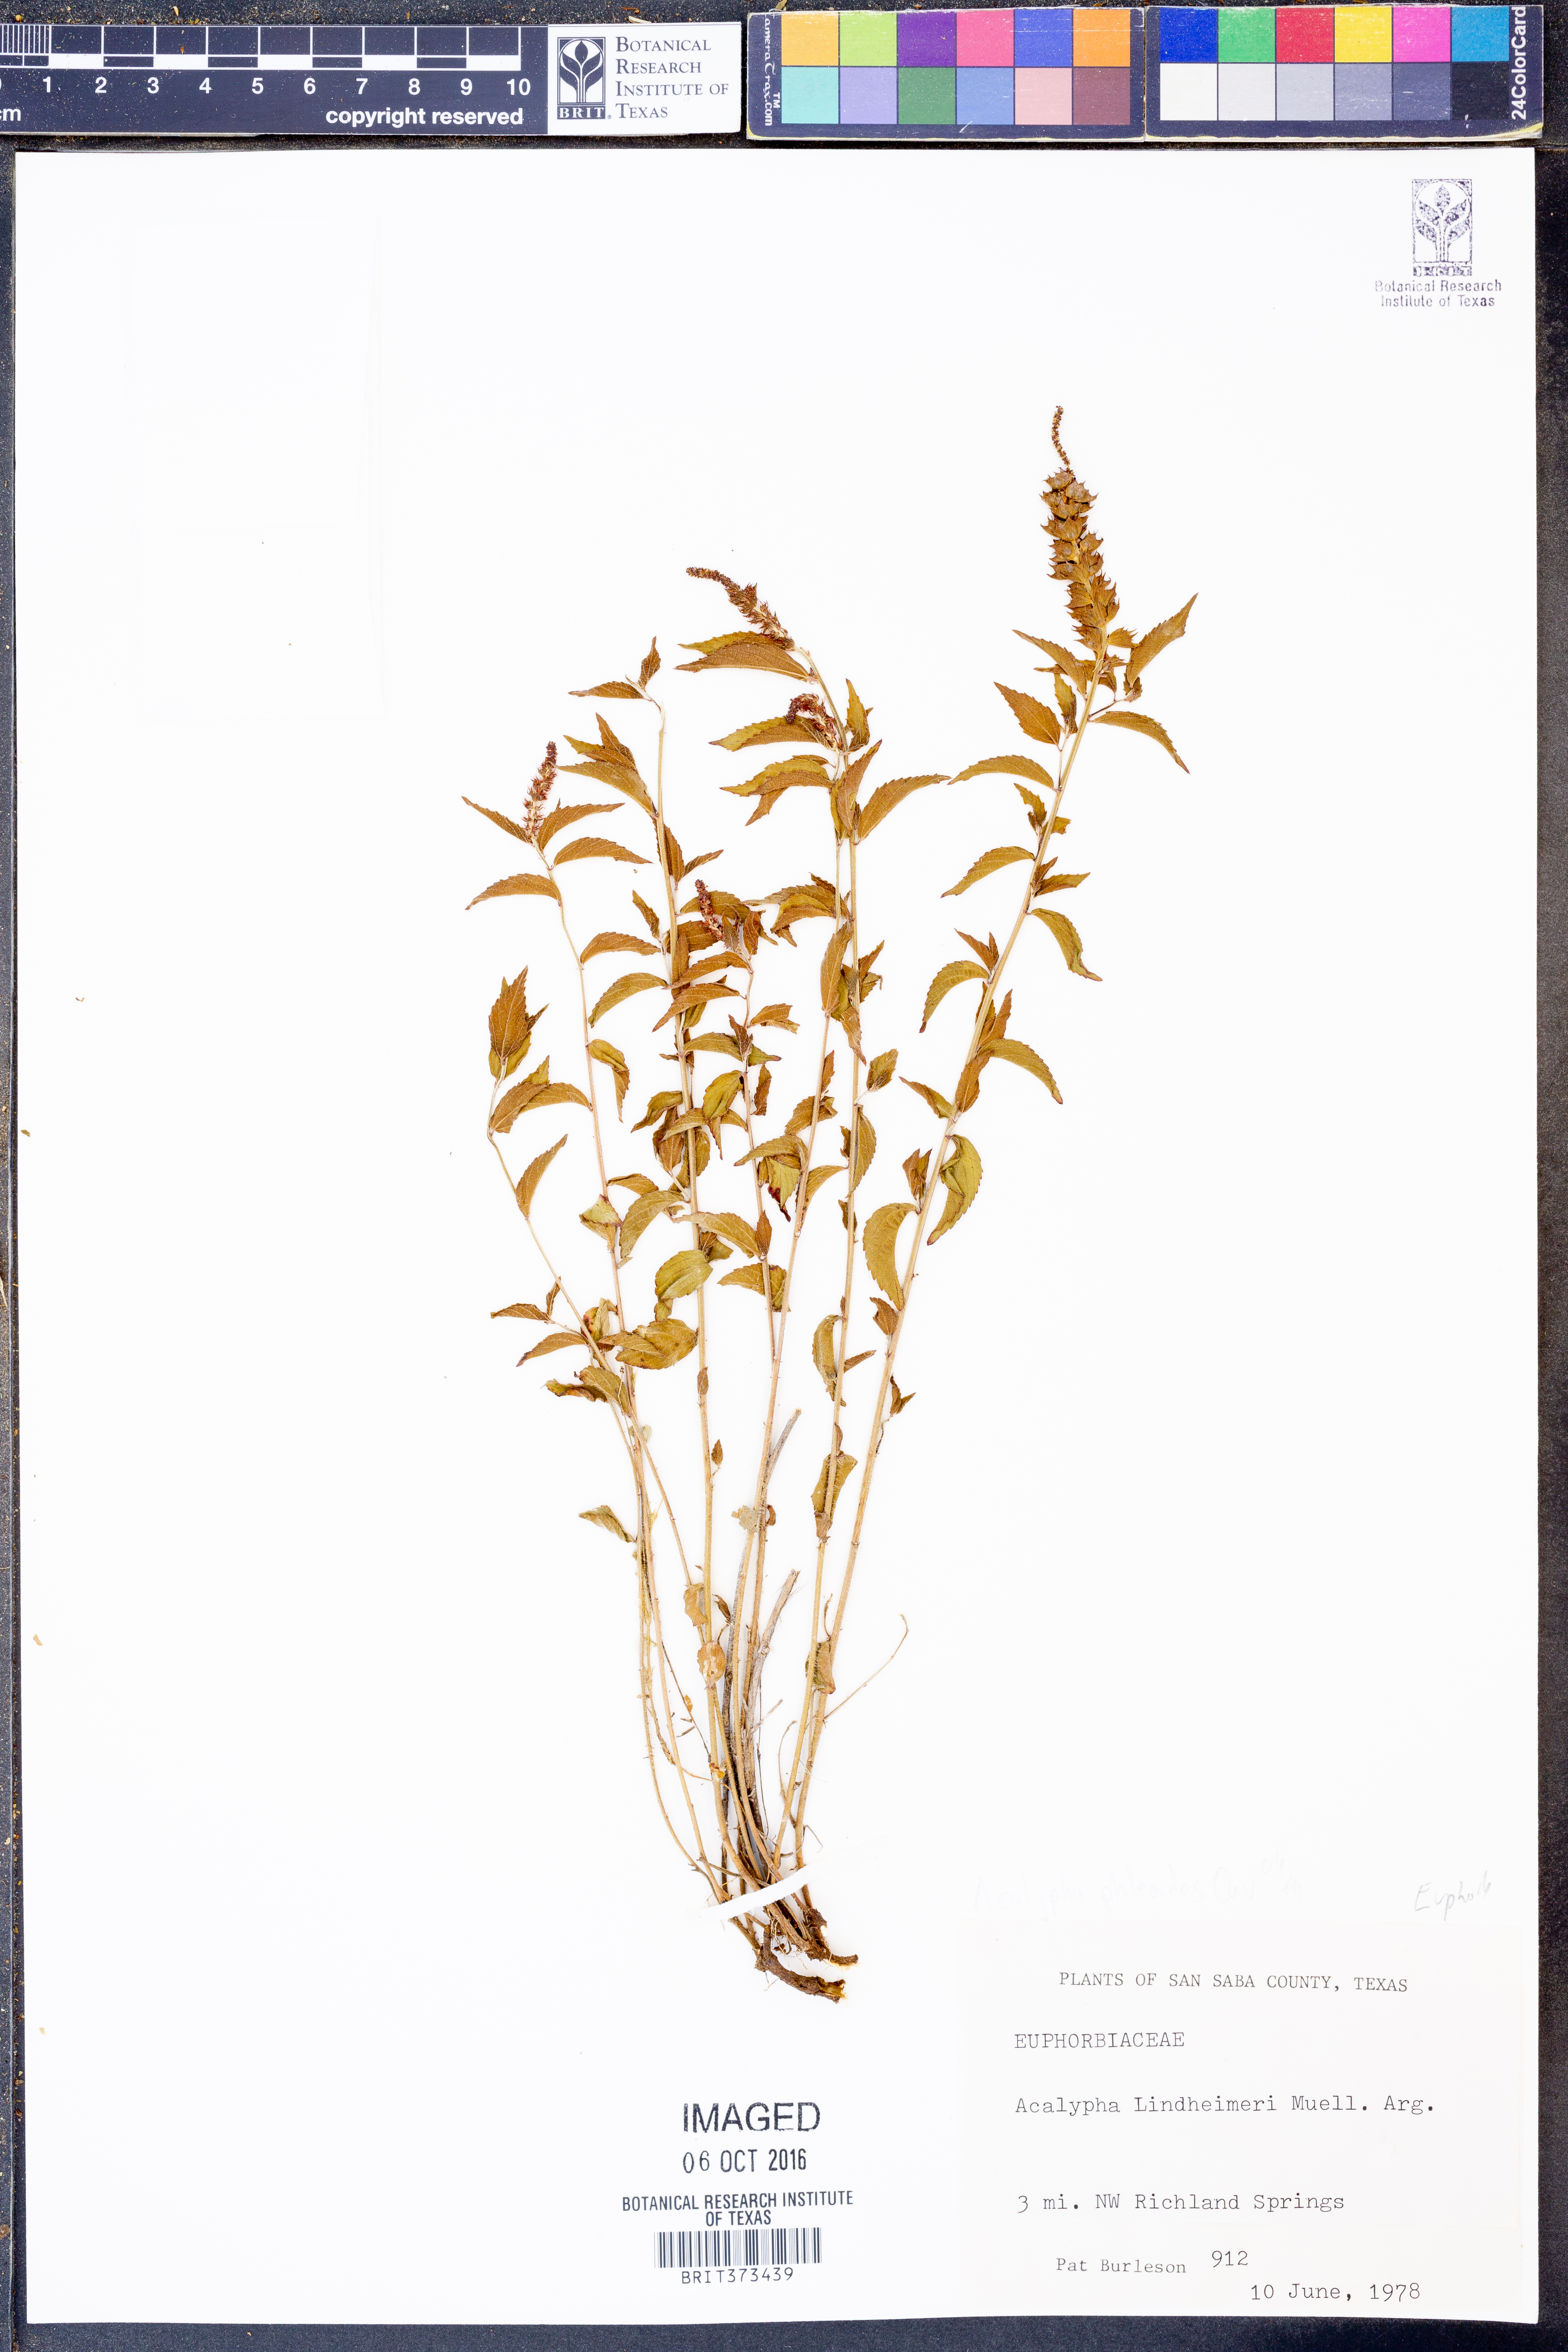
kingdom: Plantae
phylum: Tracheophyta
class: Magnoliopsida
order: Malpighiales
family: Euphorbiaceae
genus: Acalypha
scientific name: Acalypha phleoides
